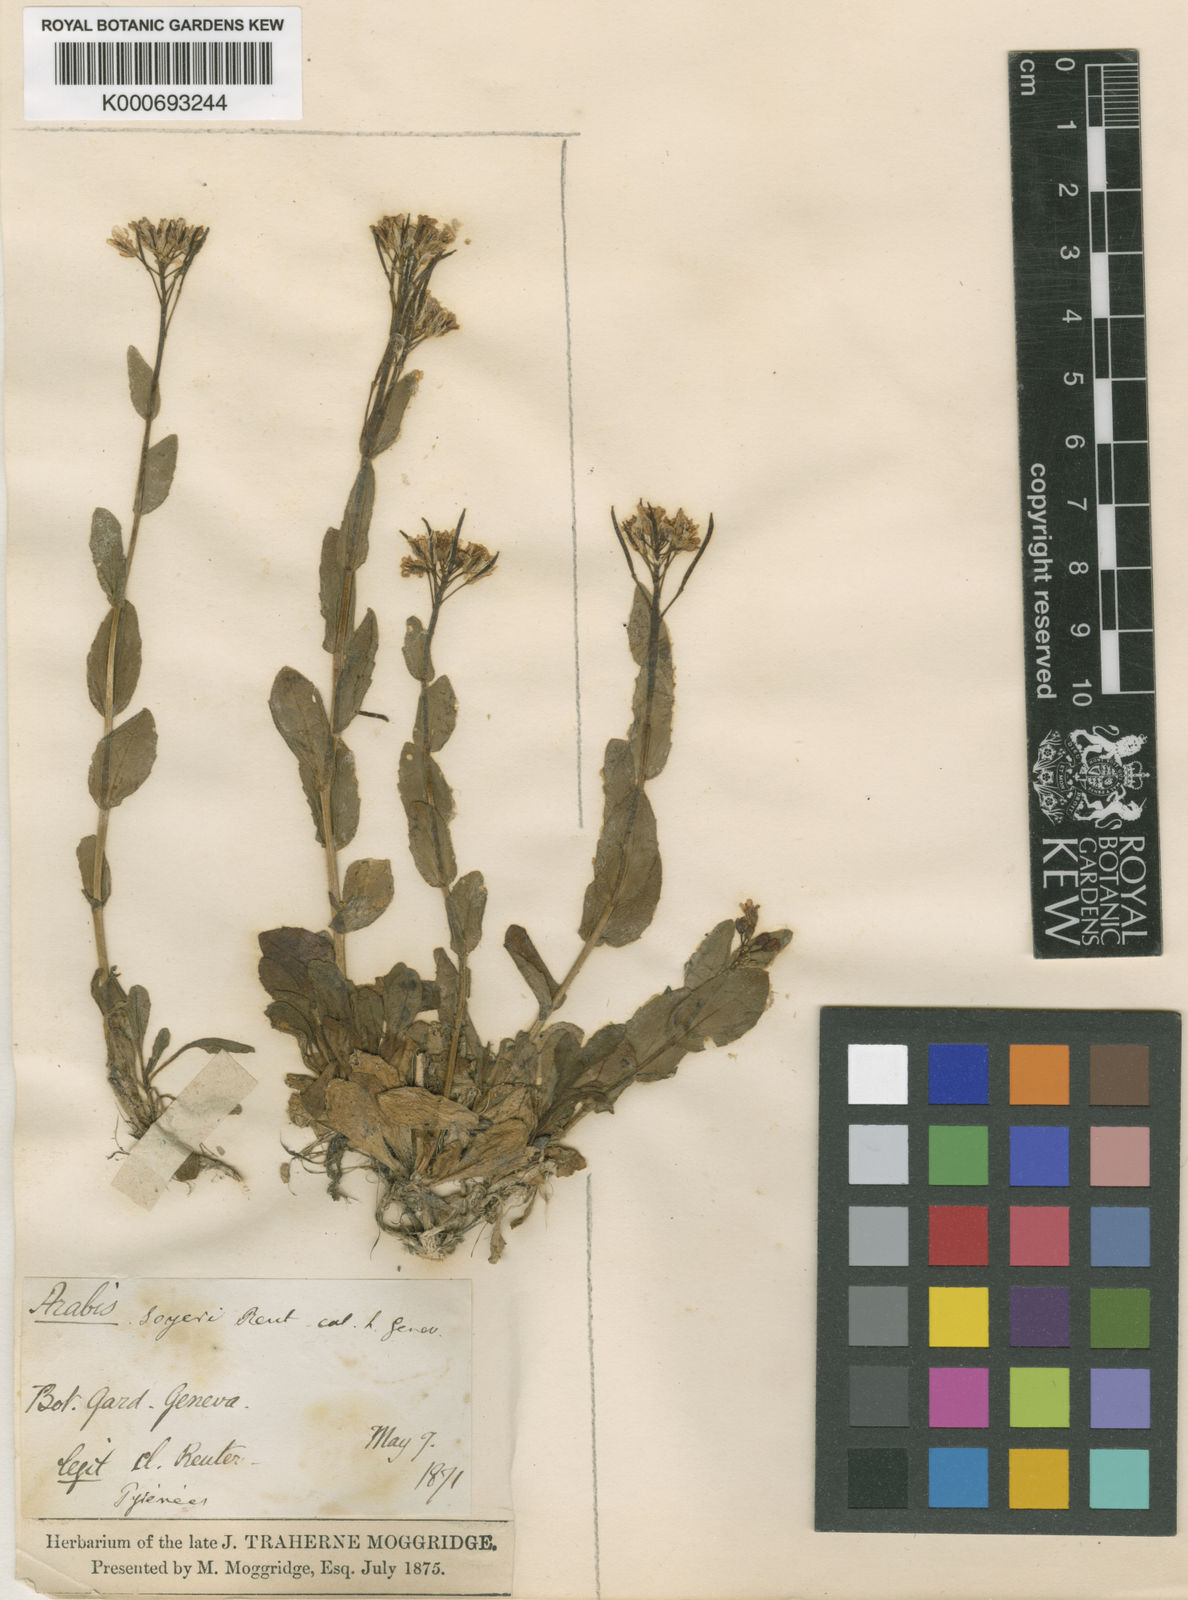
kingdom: Plantae
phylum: Tracheophyta
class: Magnoliopsida
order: Brassicales
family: Brassicaceae
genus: Arabis
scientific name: Arabis soyeri
